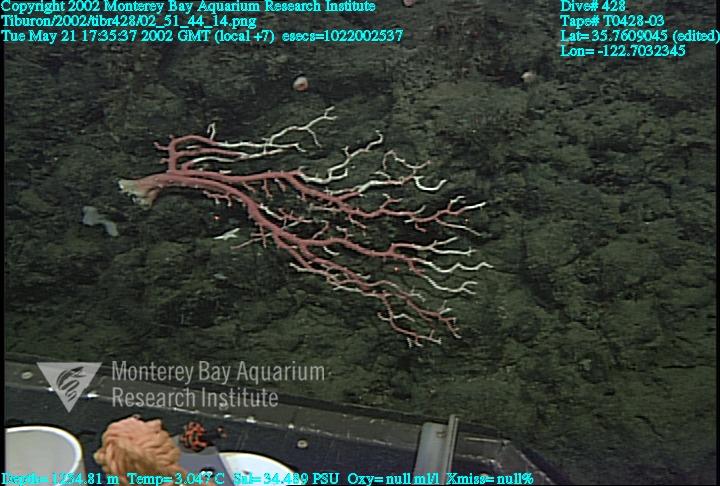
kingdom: Animalia
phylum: Porifera
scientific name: Porifera
